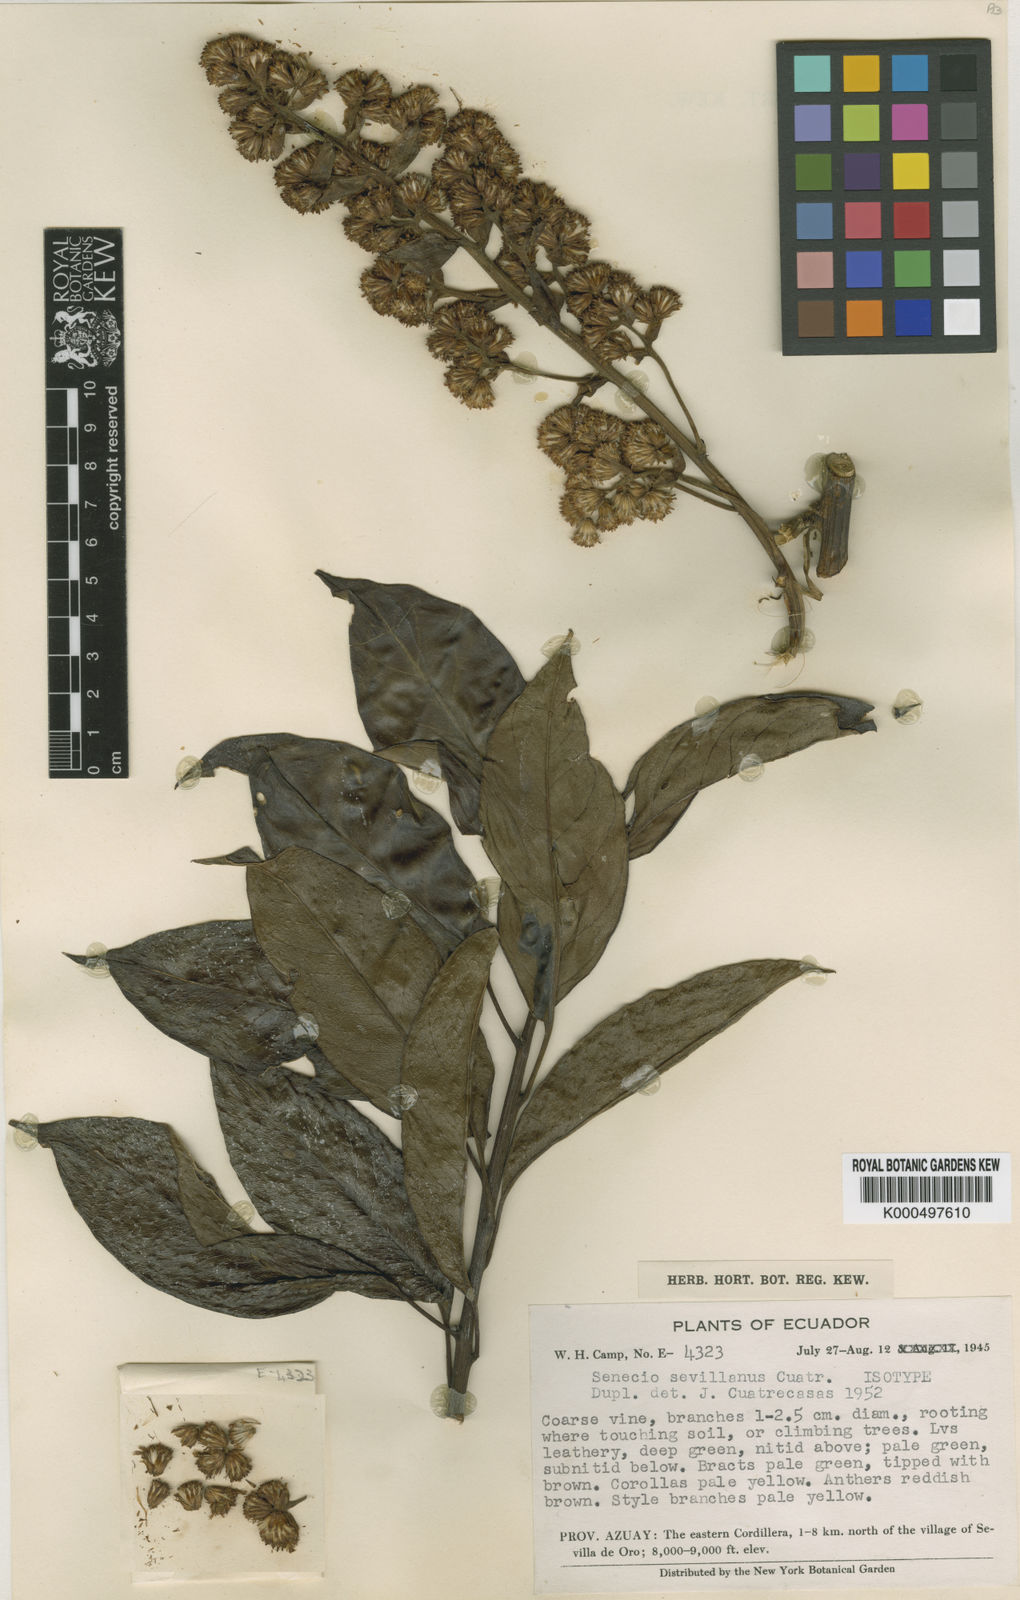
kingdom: Plantae
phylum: Tracheophyta
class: Magnoliopsida
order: Asterales
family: Asteraceae
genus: Pentacalia
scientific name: Pentacalia sevillana
